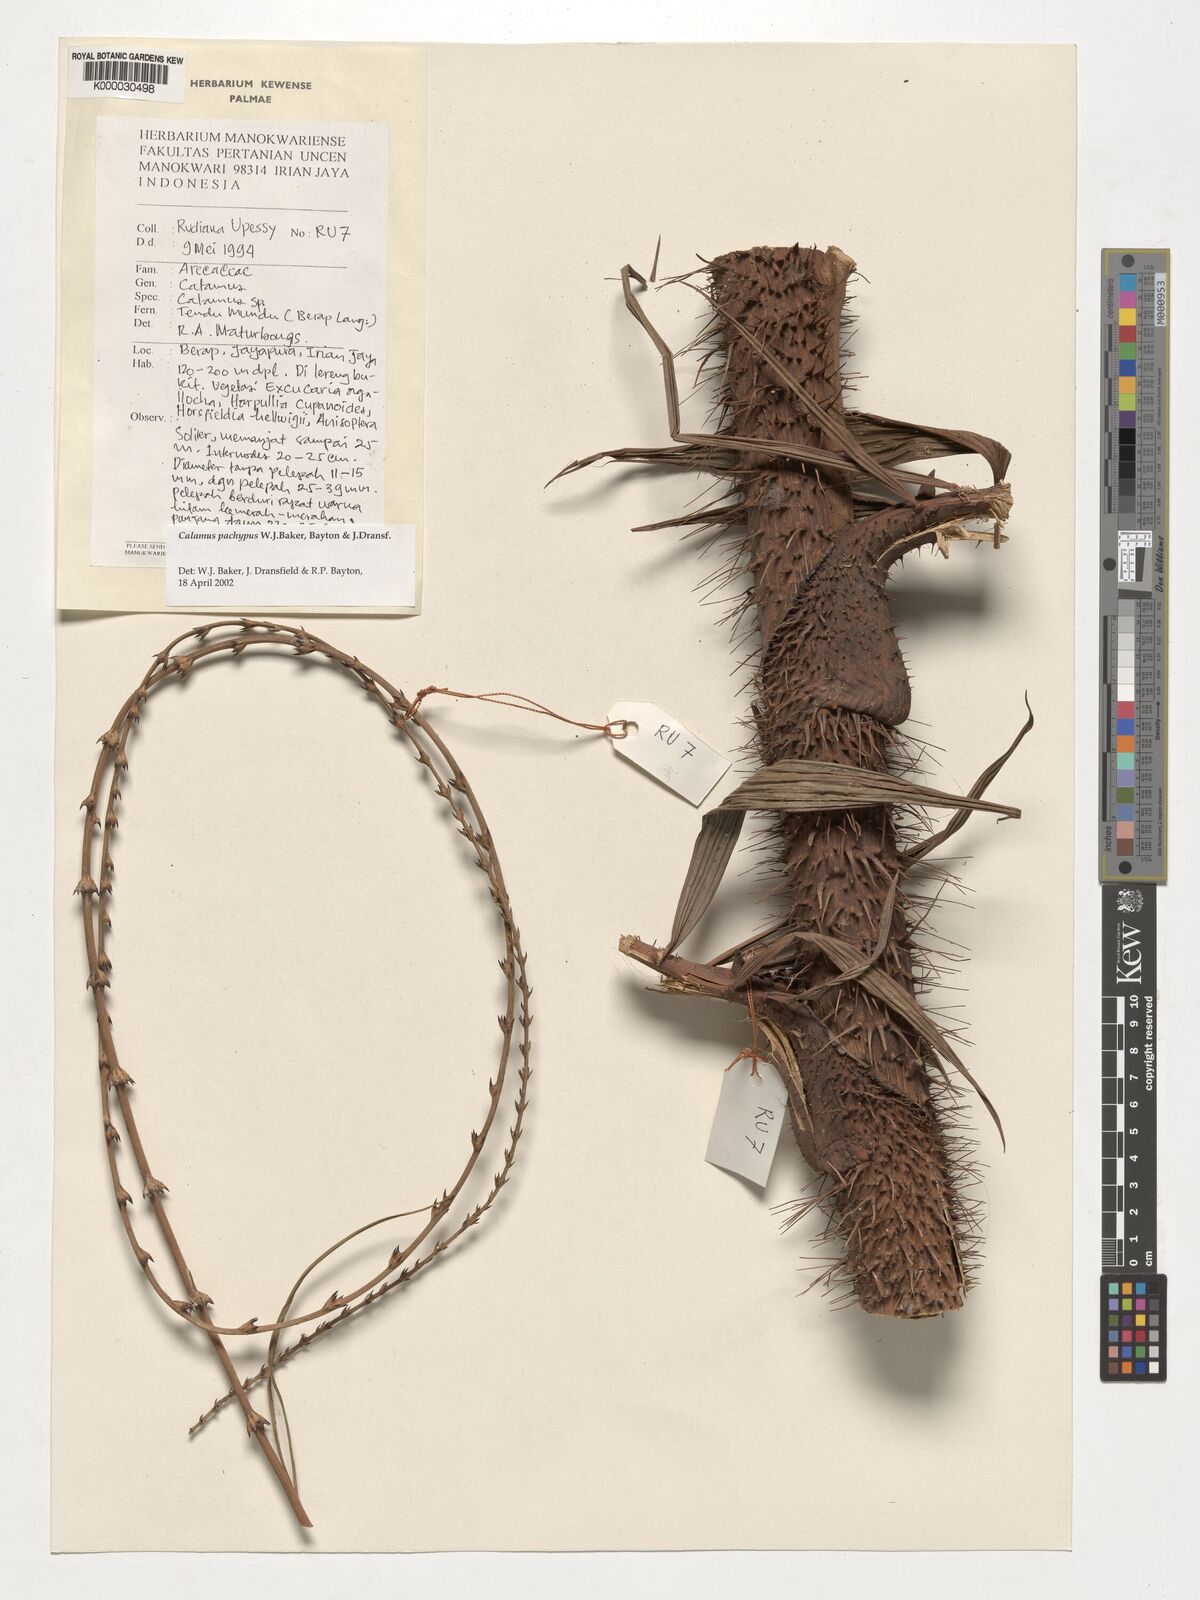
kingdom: Plantae
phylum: Tracheophyta
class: Liliopsida
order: Arecales
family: Arecaceae
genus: Calamus
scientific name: Calamus
